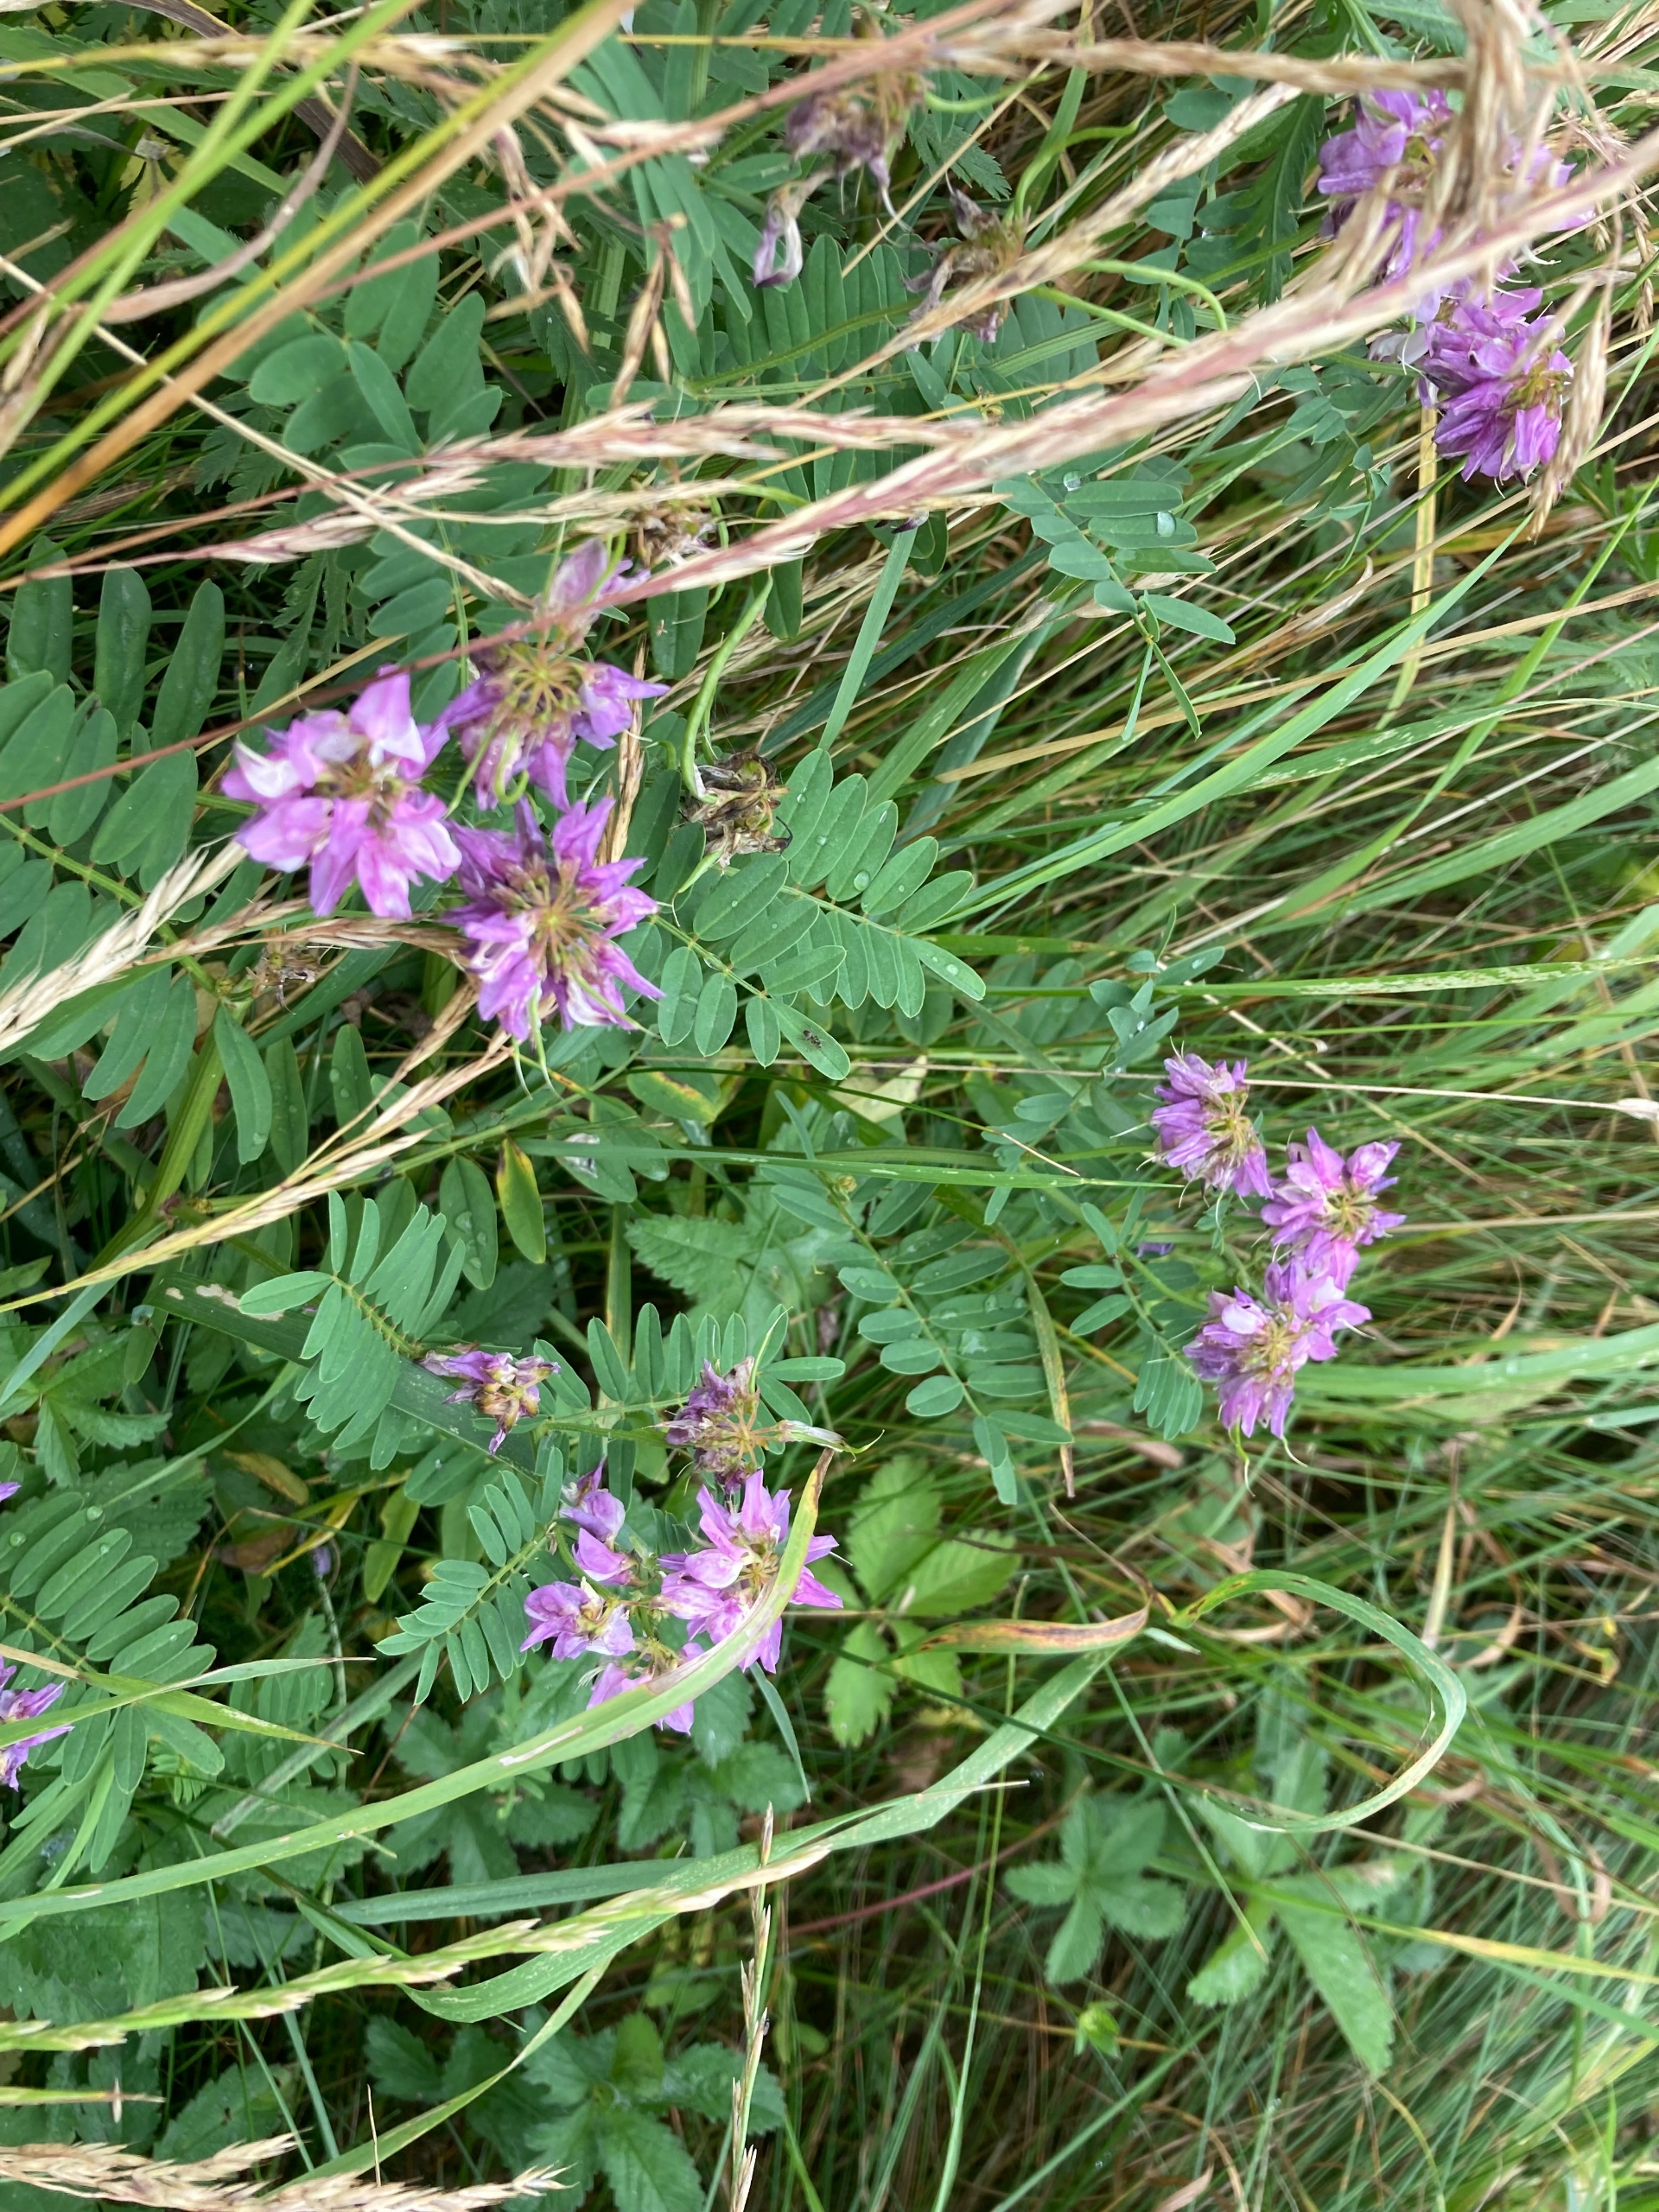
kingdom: Plantae
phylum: Tracheophyta
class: Magnoliopsida
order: Fabales
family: Fabaceae
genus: Coronilla
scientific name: Coronilla varia
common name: Giftig kronvikke
